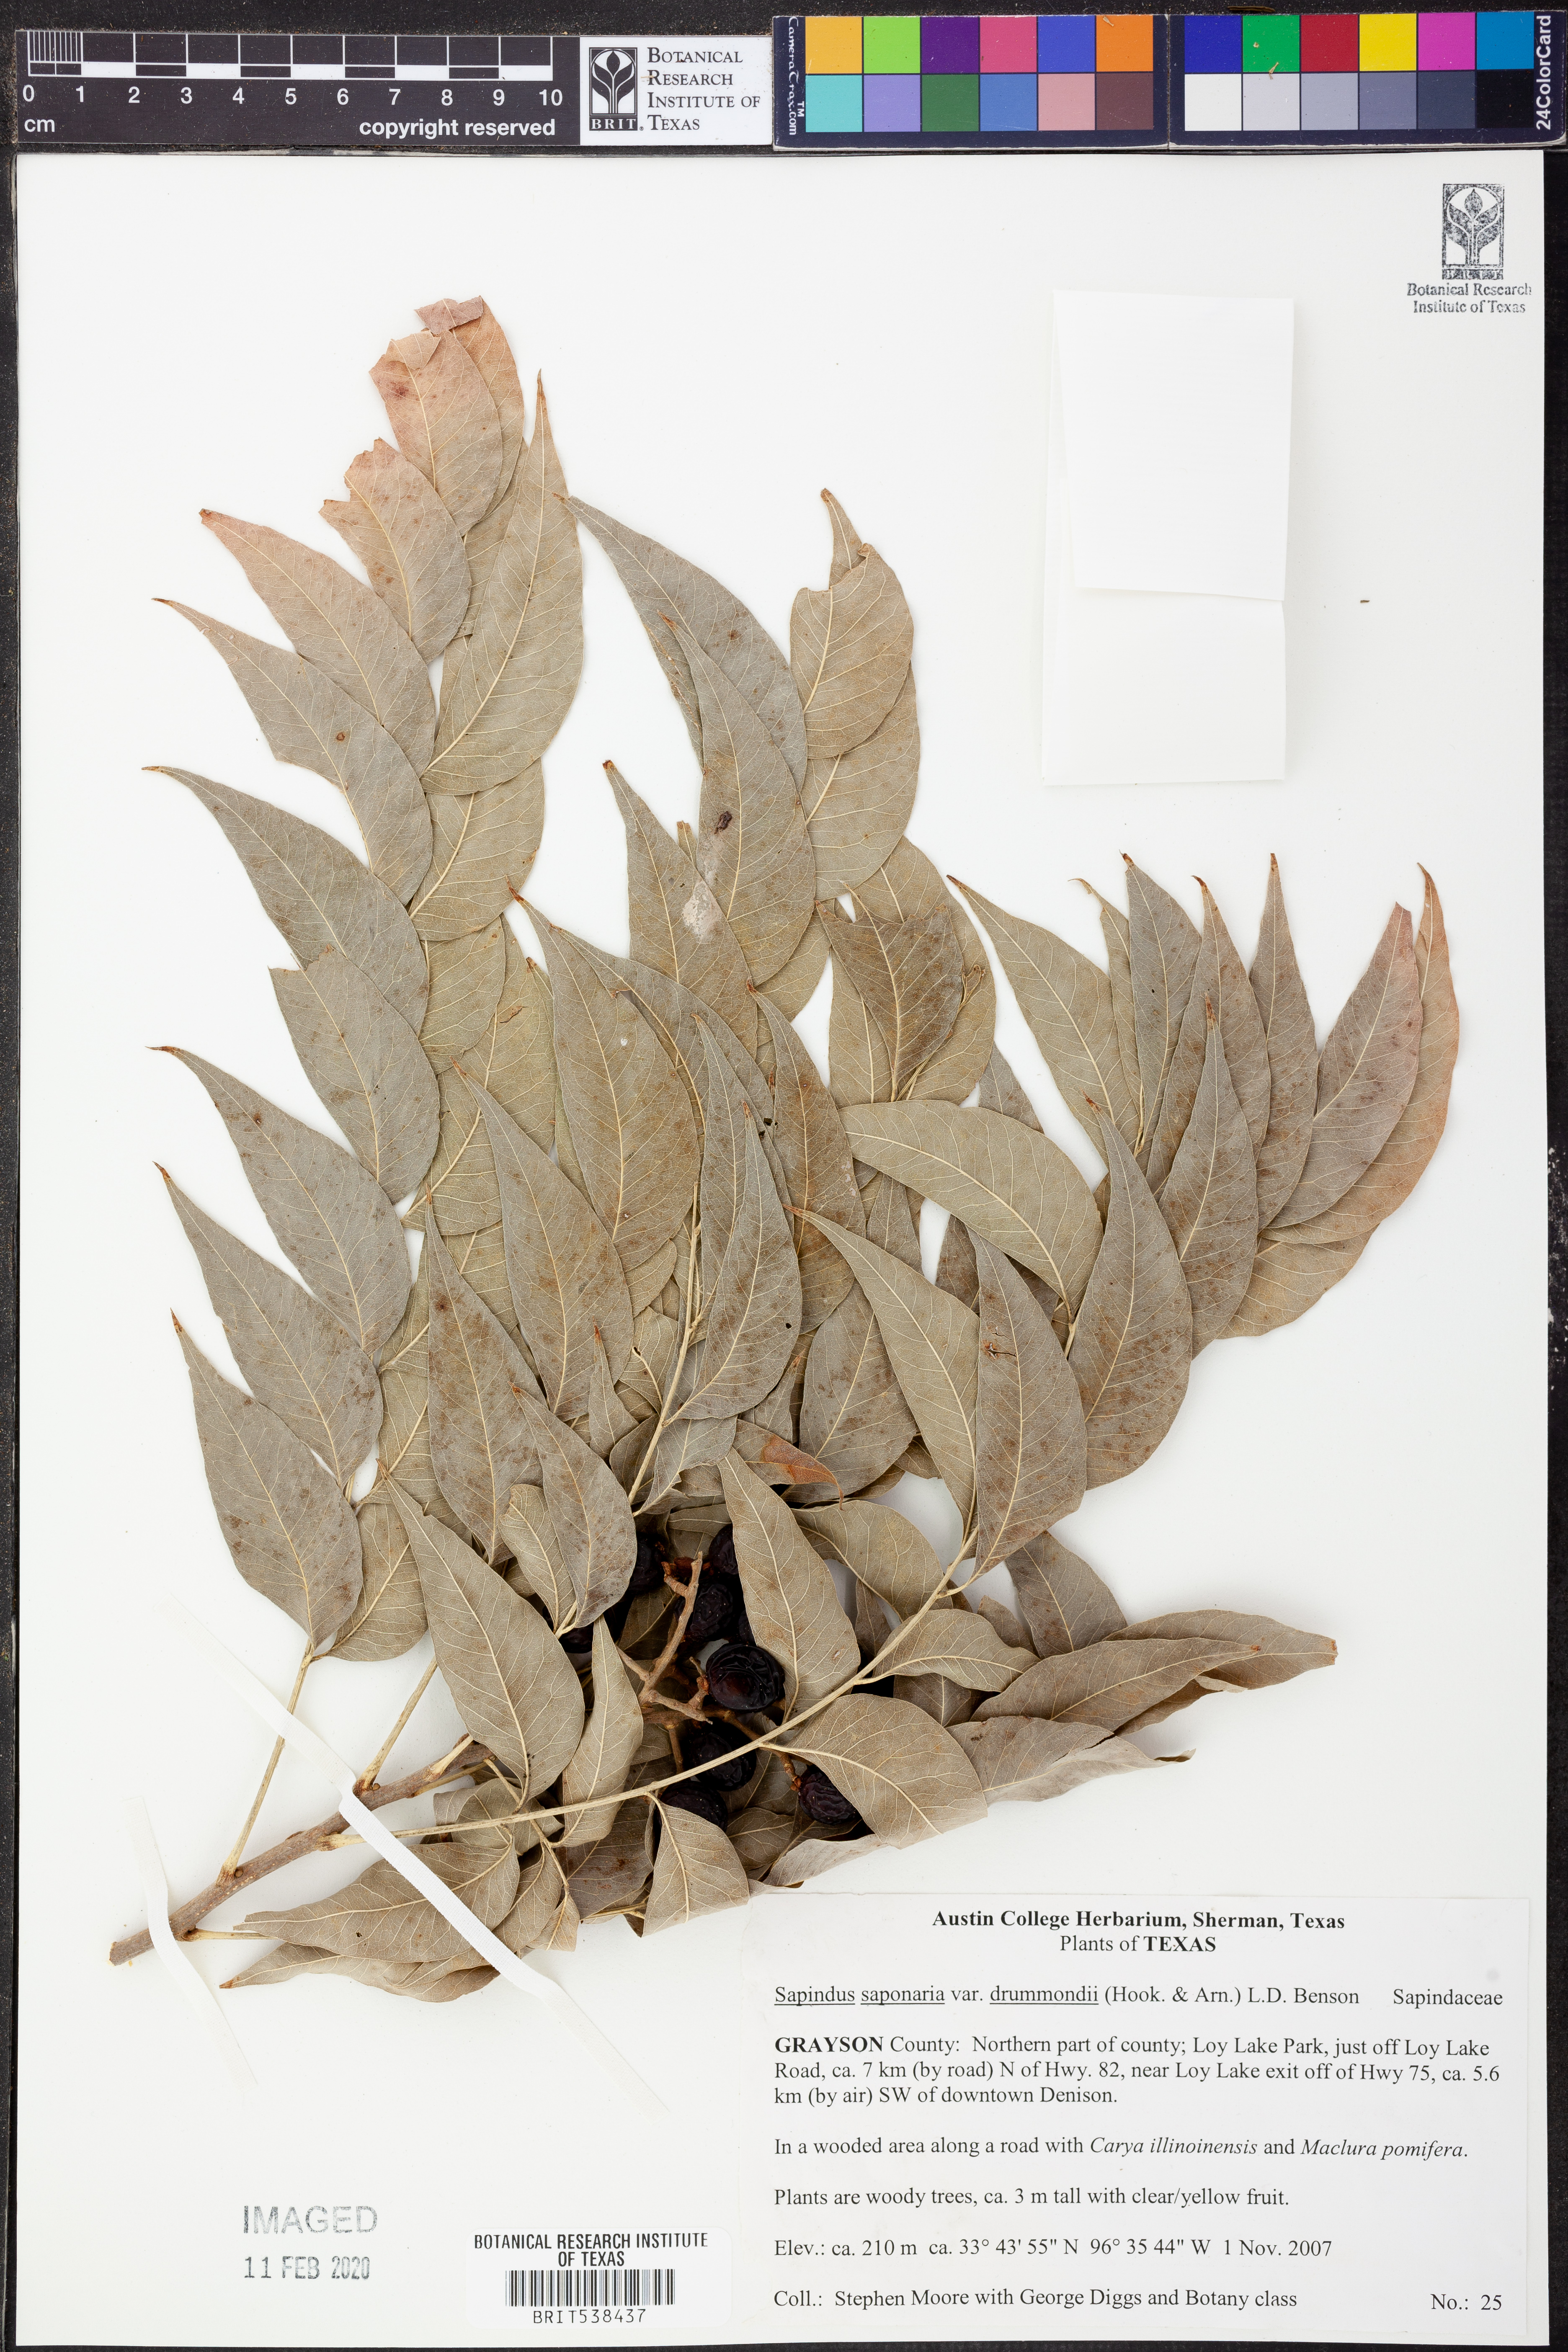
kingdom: Plantae
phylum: Tracheophyta
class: Magnoliopsida
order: Sapindales
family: Sapindaceae
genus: Sapindus
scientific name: Sapindus drummondii
